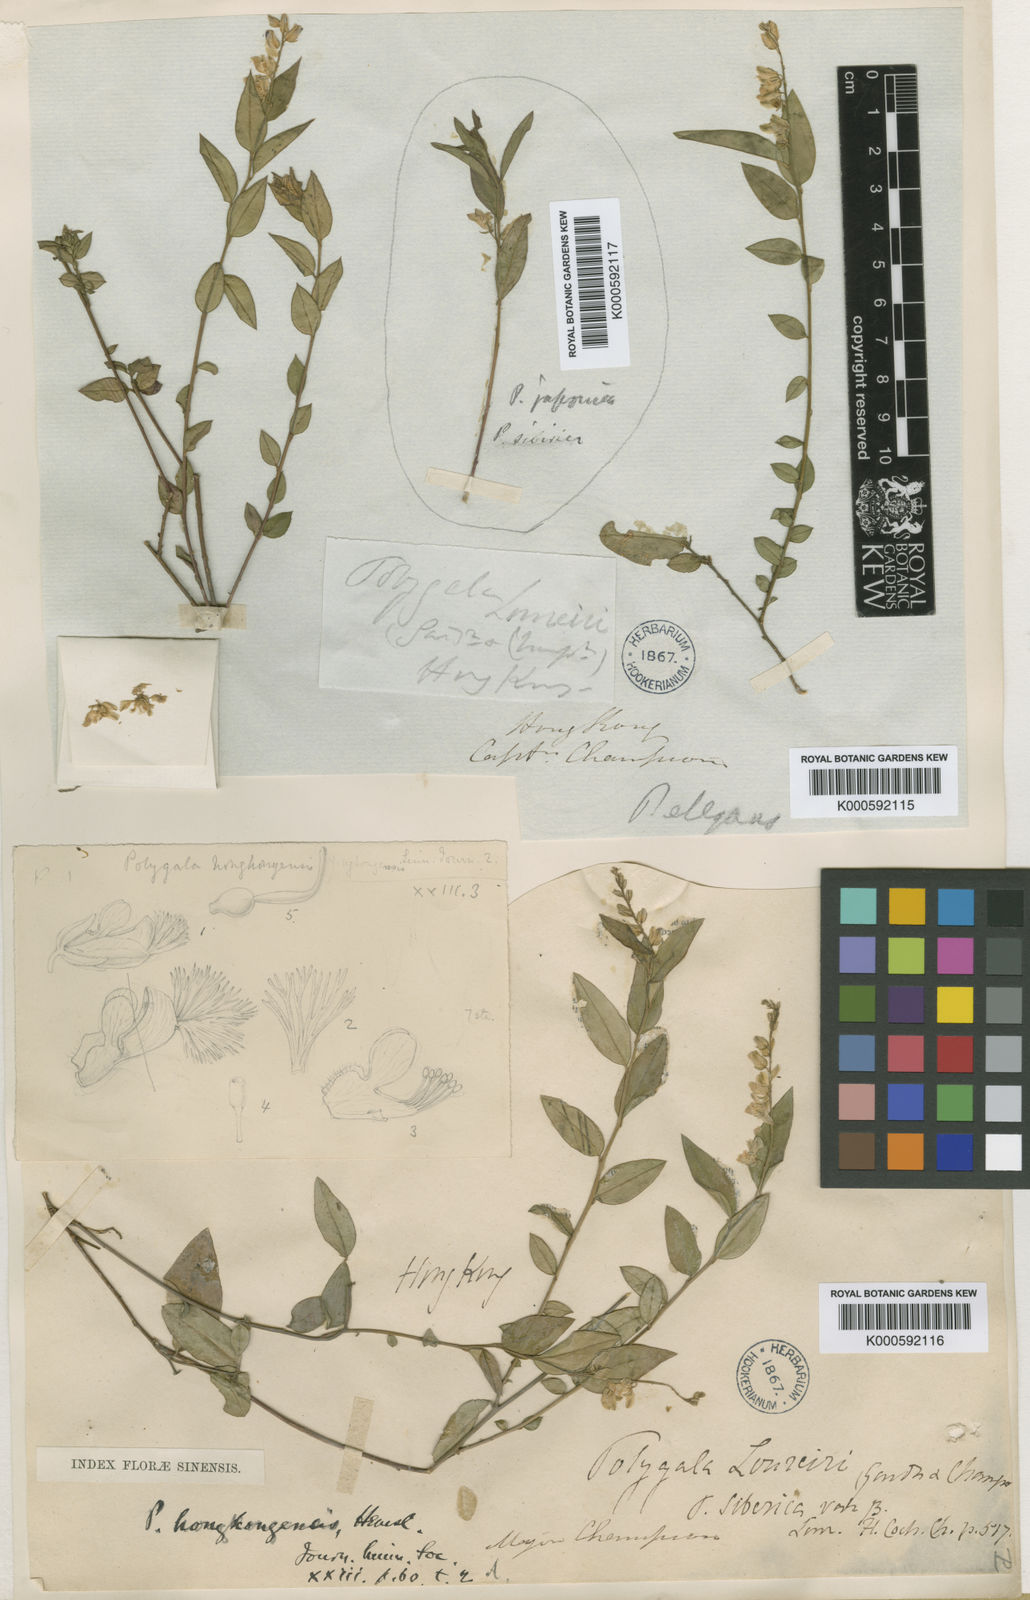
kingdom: Plantae
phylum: Tracheophyta
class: Magnoliopsida
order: Fabales
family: Polygalaceae
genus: Polygala
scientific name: Polygala
